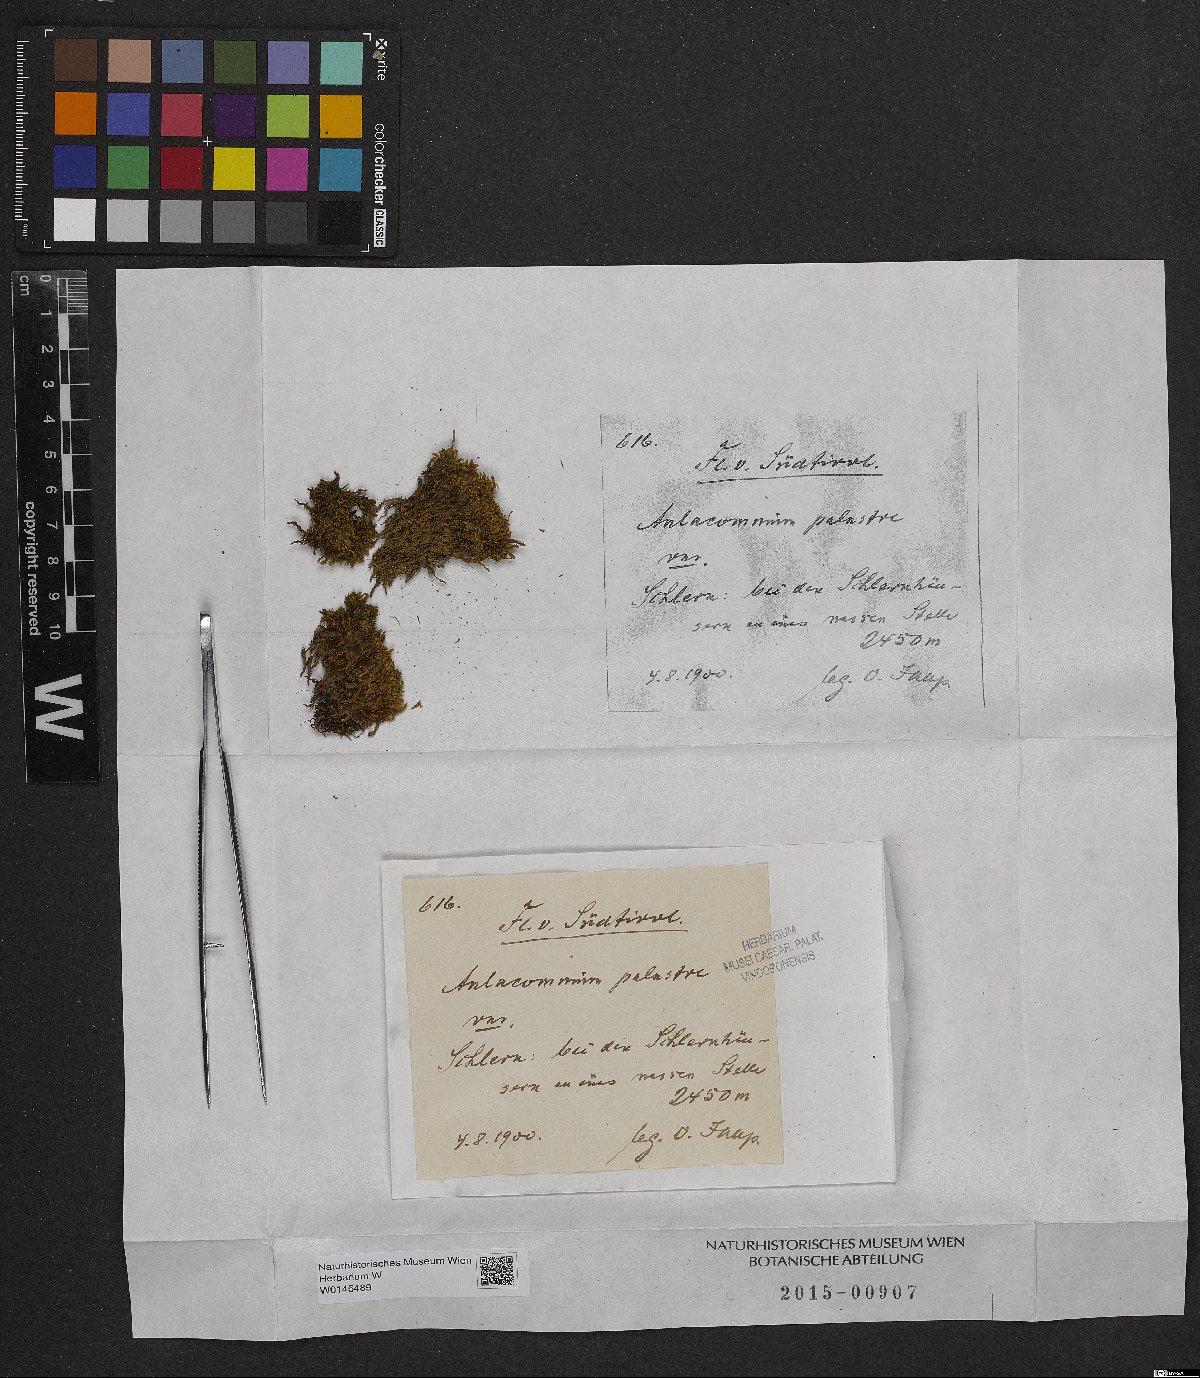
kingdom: Plantae
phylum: Bryophyta
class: Bryopsida
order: Aulacomniales
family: Aulacomniaceae
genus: Aulacomnium
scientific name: Aulacomnium palustre
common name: Bog groove-moss
